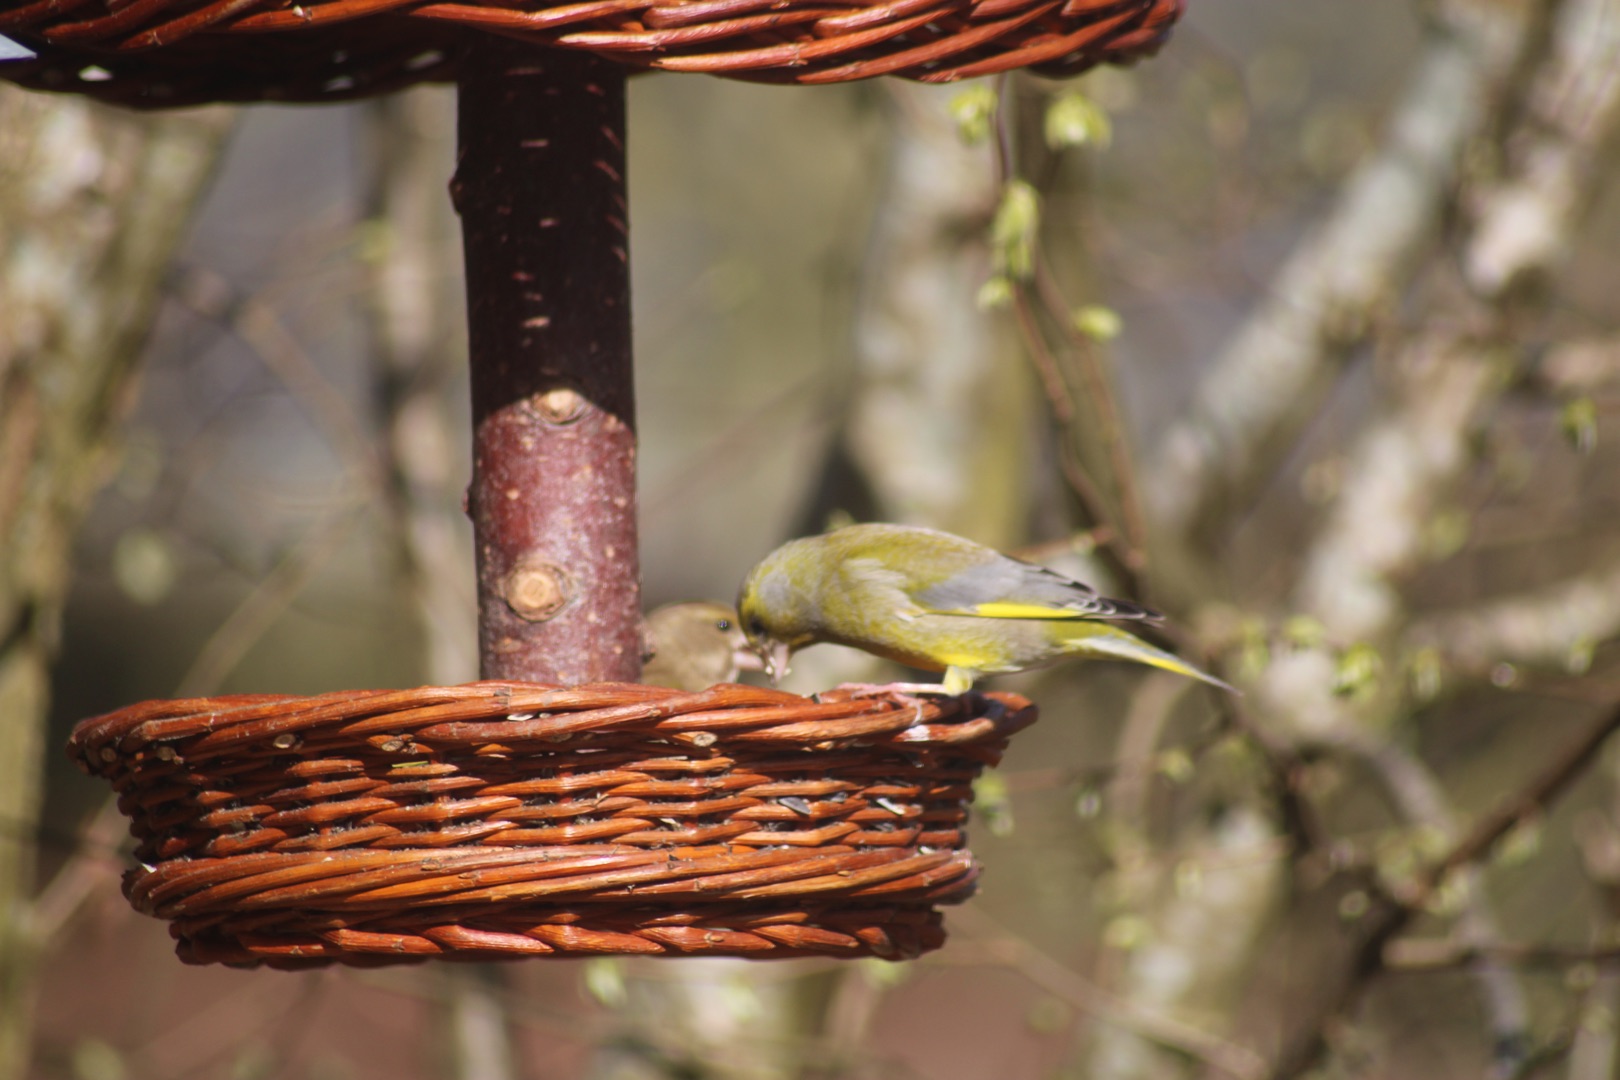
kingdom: Plantae
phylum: Tracheophyta
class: Liliopsida
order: Poales
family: Poaceae
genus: Chloris
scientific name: Chloris chloris
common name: Grønirisk
